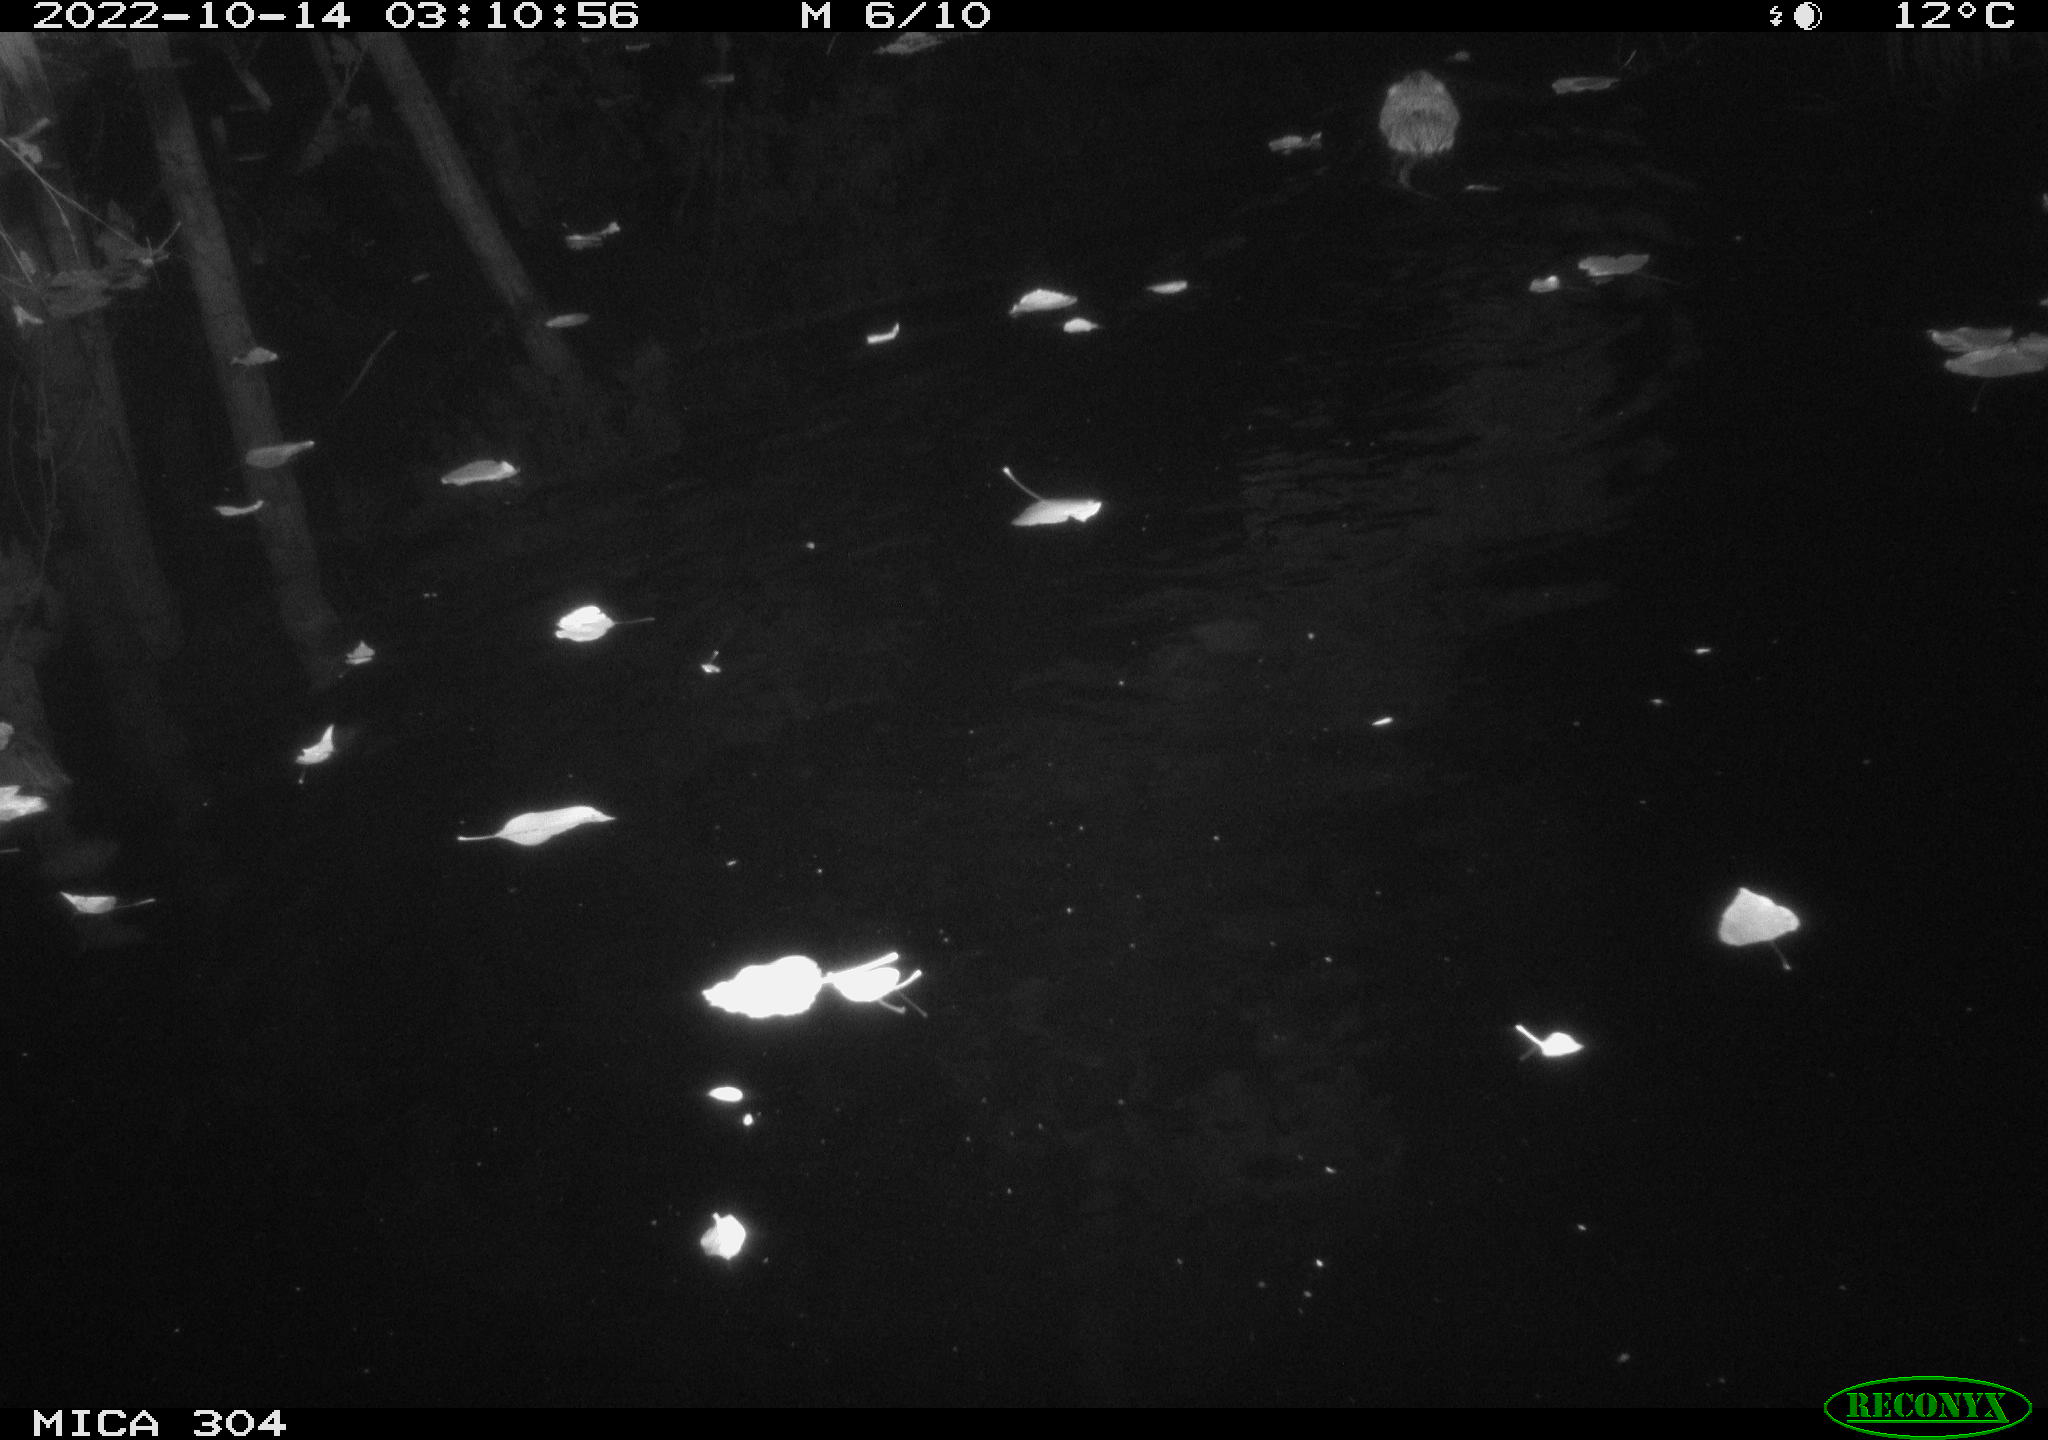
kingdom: Animalia
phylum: Chordata
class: Mammalia
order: Rodentia
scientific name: Rodentia
